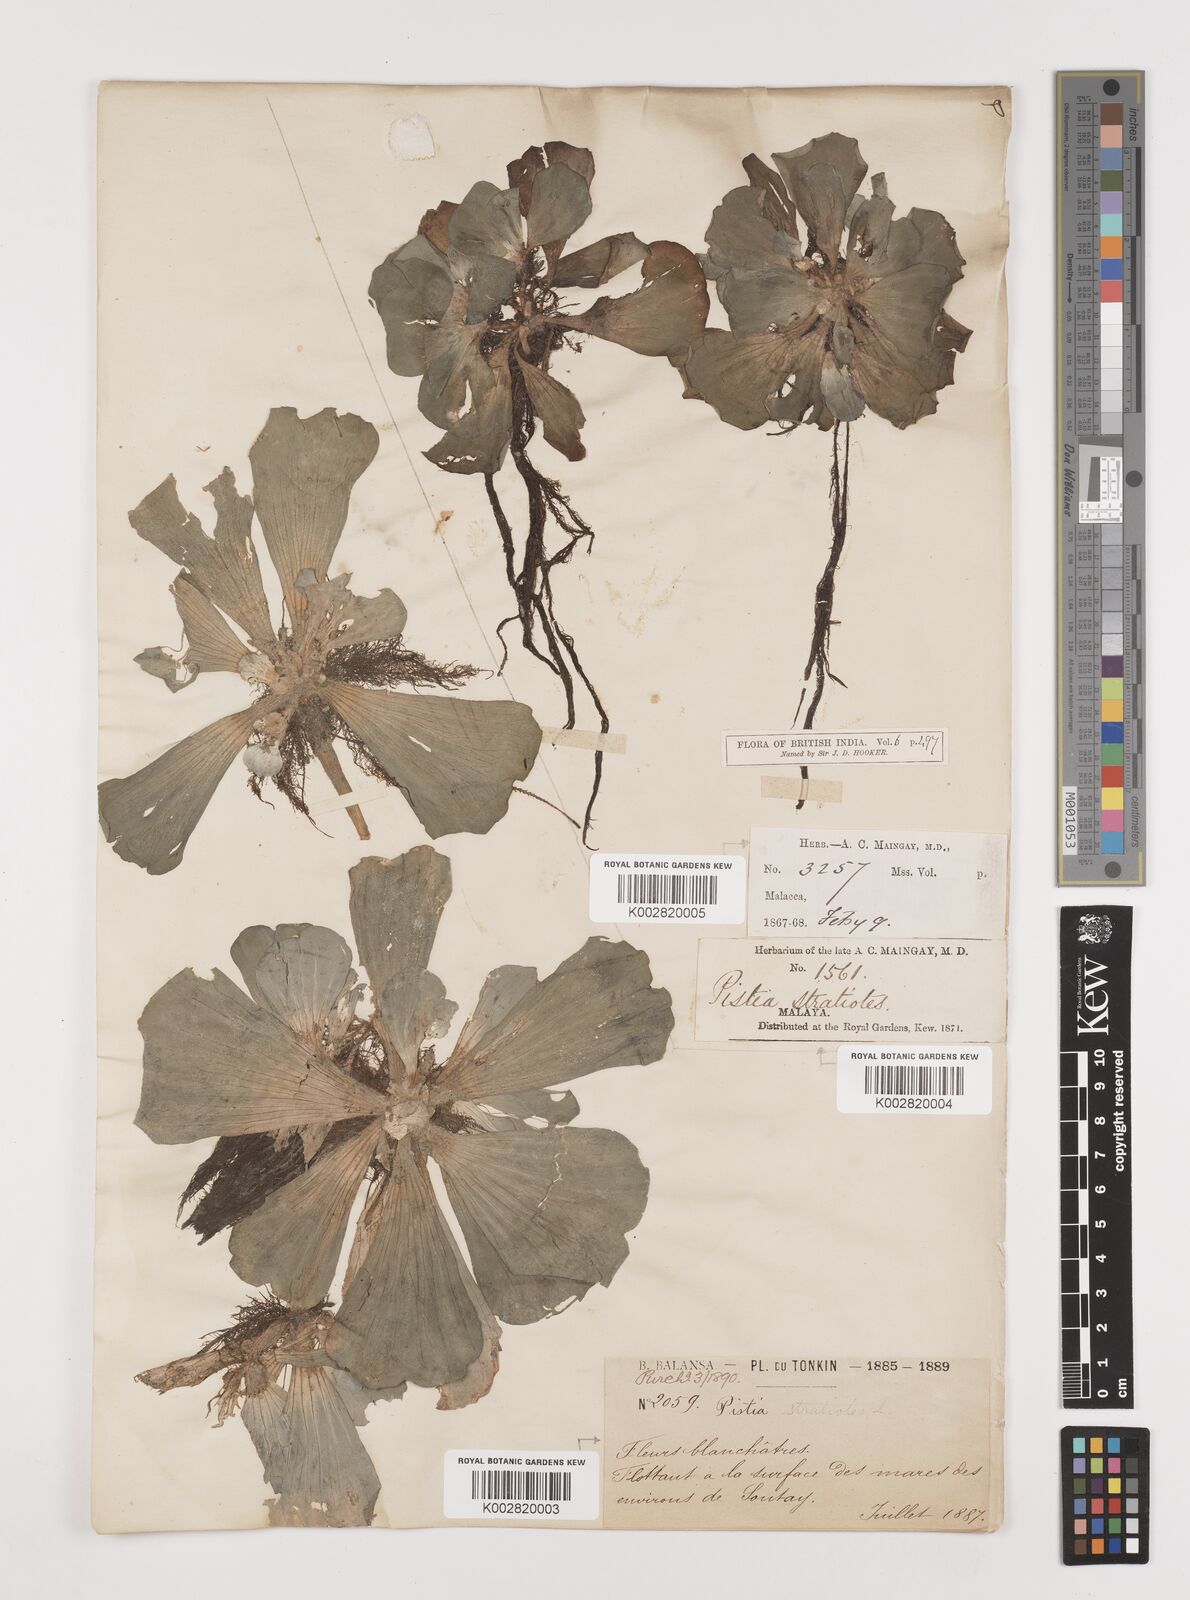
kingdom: Plantae
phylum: Tracheophyta
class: Liliopsida
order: Alismatales
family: Araceae
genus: Pistia
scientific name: Pistia stratiotes
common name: Water lettuce
